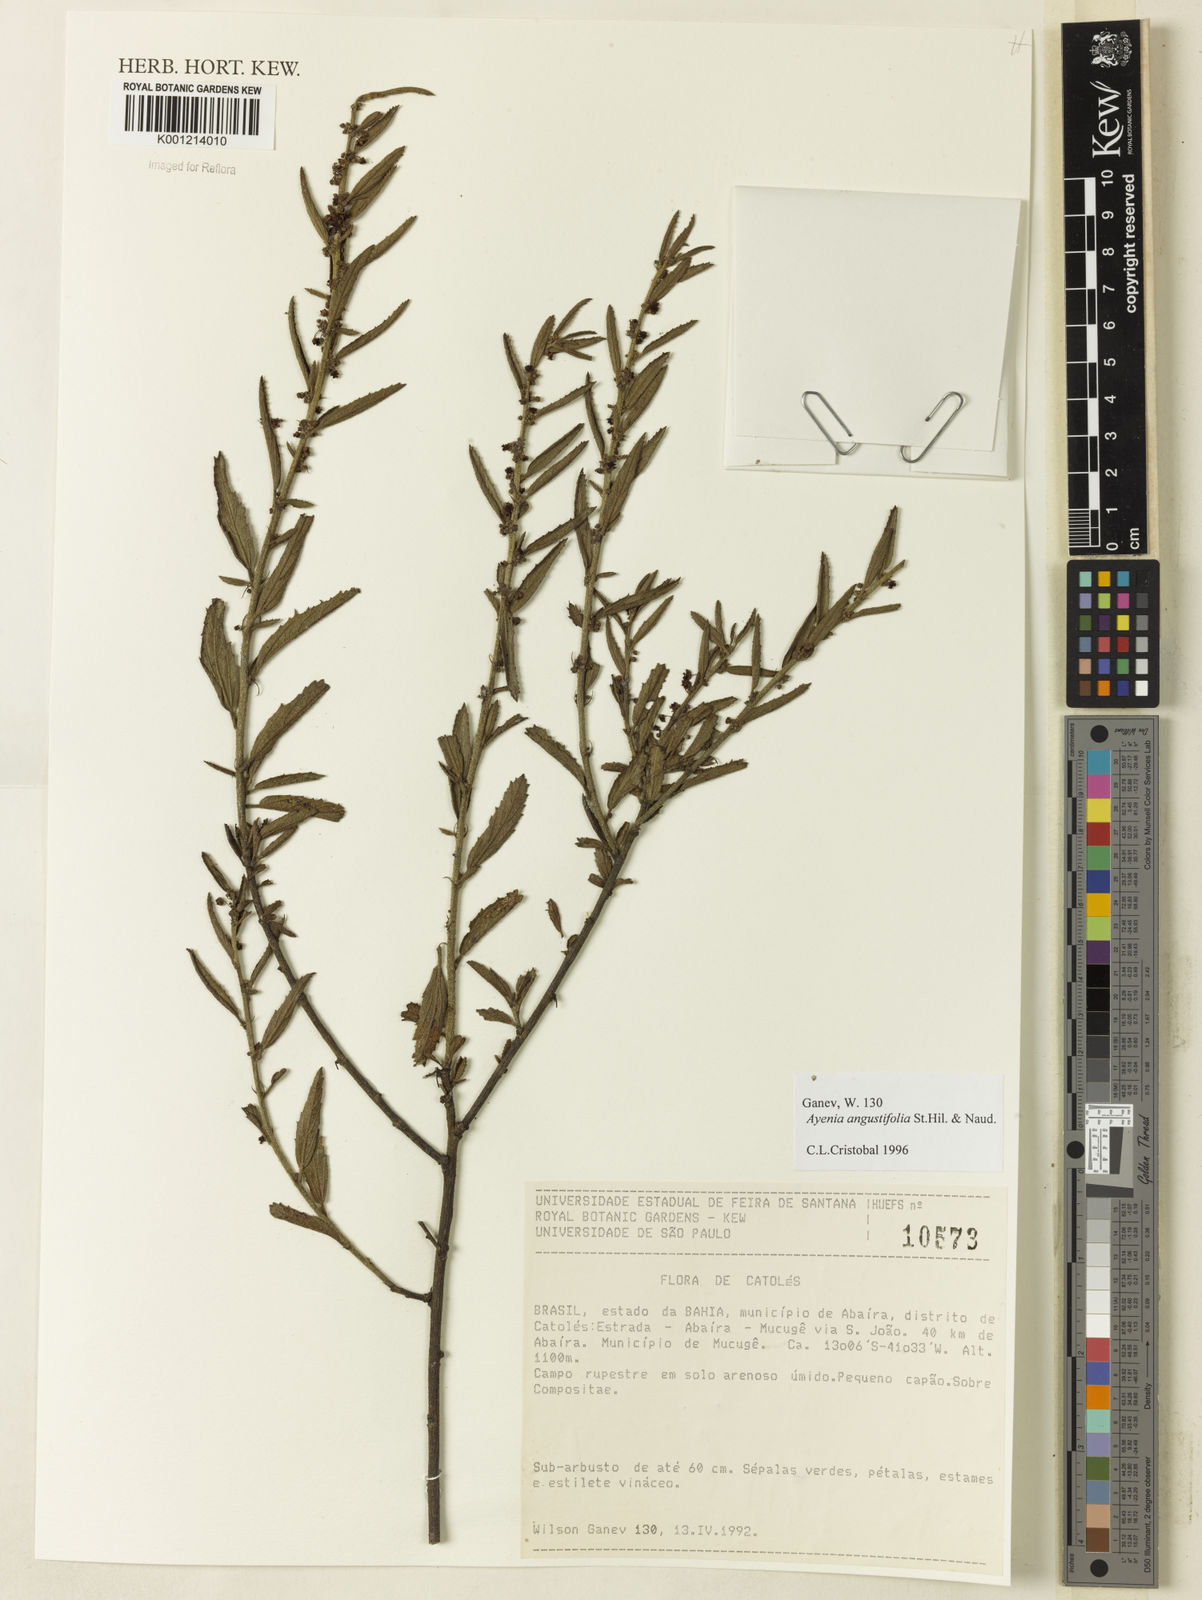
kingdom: Plantae
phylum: Tracheophyta
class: Magnoliopsida
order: Malvales
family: Malvaceae
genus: Ayenia
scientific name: Ayenia angustifolia
